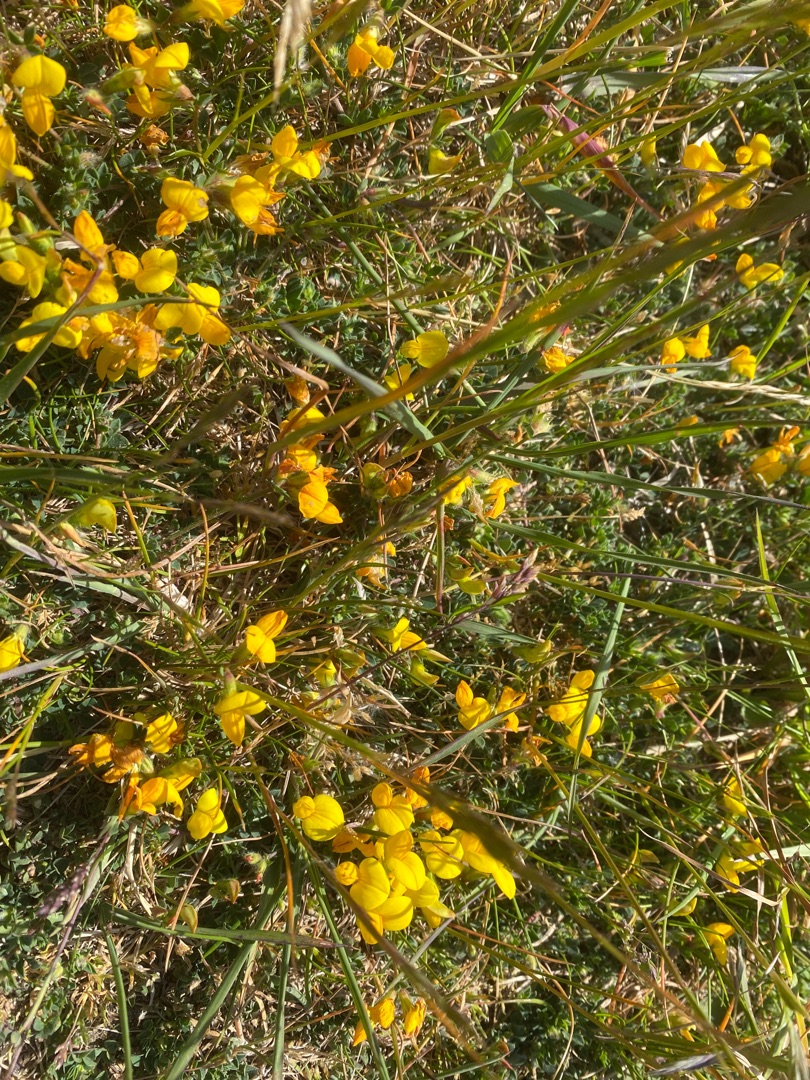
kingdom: Plantae
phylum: Tracheophyta
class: Magnoliopsida
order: Fabales
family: Fabaceae
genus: Lotus
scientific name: Lotus corniculatus
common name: Almindelig kællingetand
